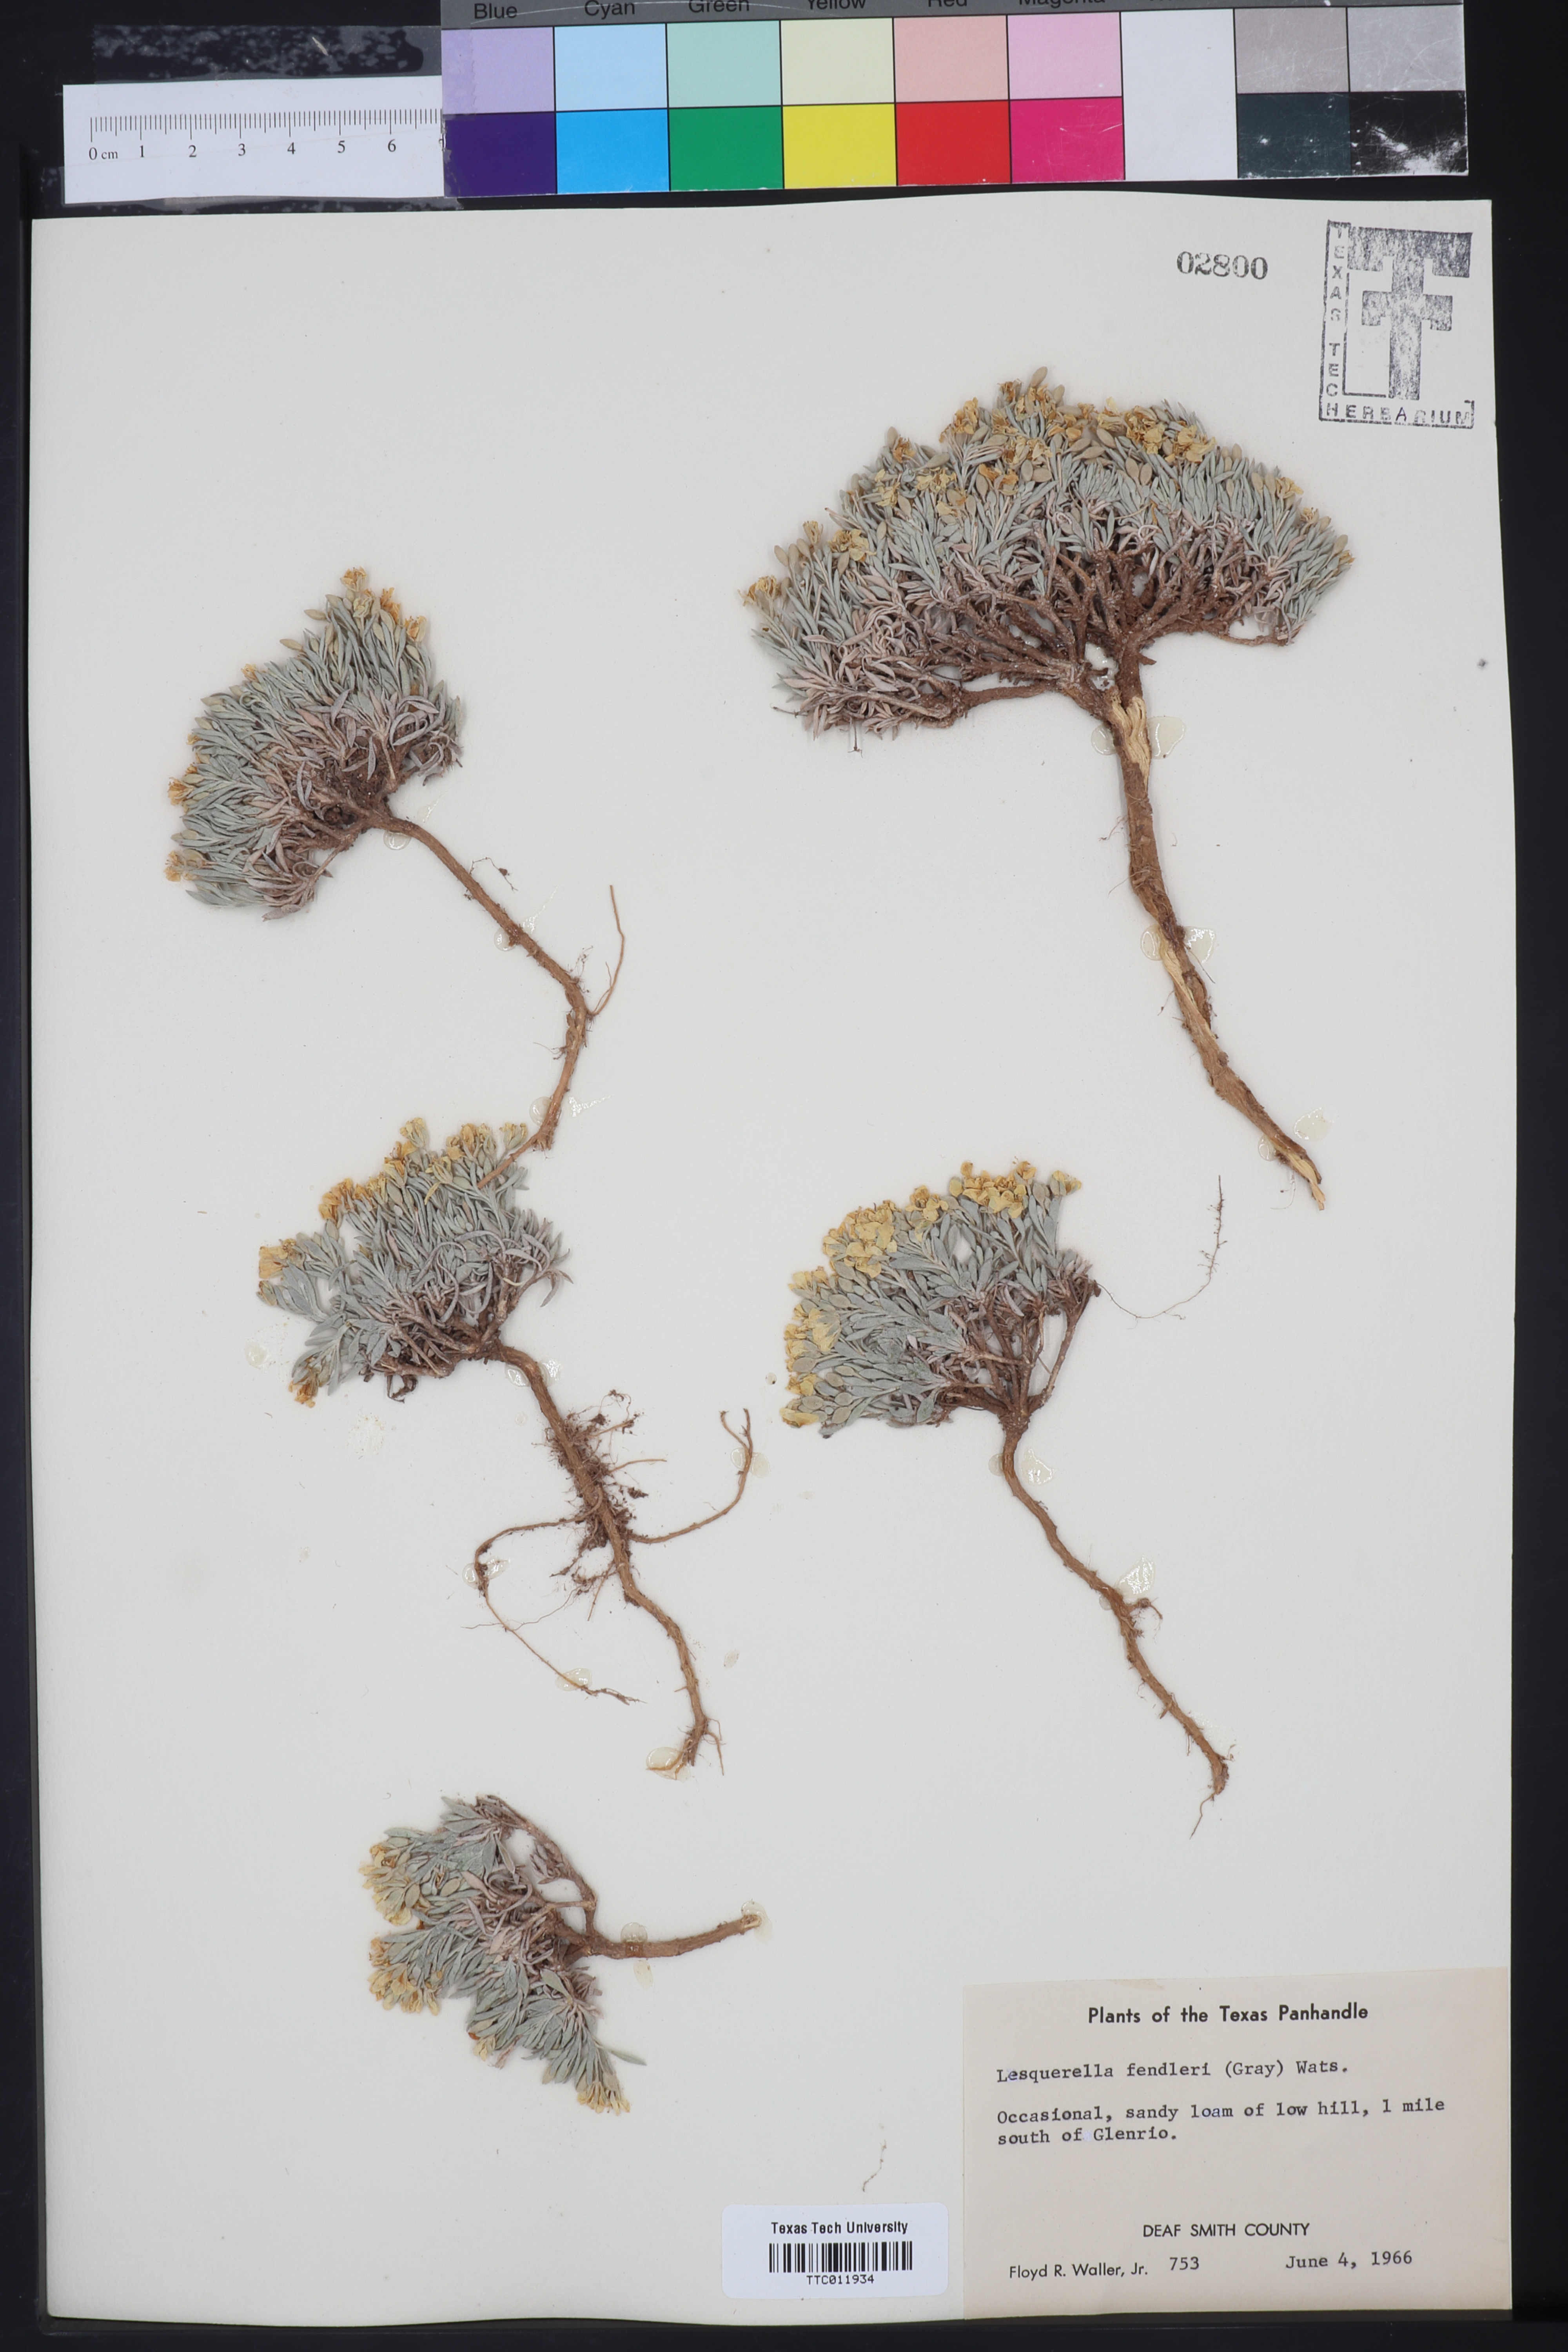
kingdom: Plantae
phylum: Tracheophyta
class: Magnoliopsida
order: Brassicales
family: Brassicaceae
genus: Physaria
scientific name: Physaria fendleri
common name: Fendler's bladderpod
